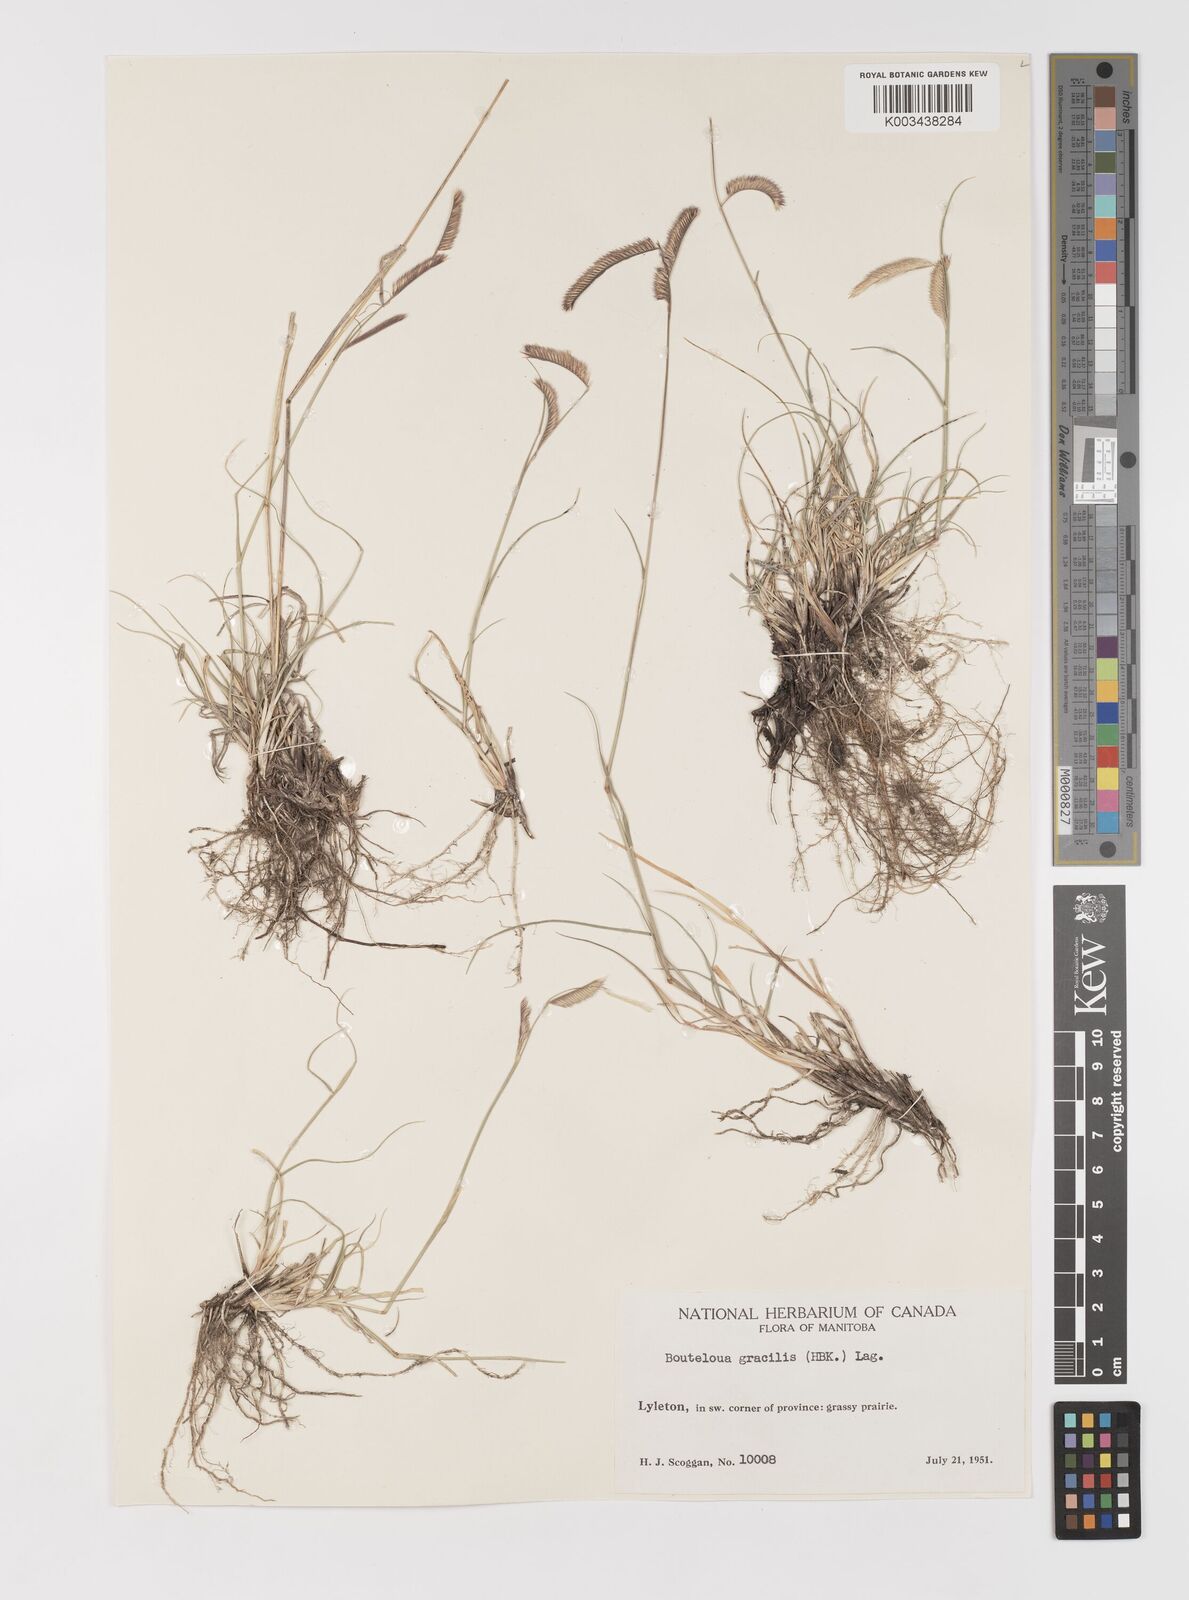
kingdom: Plantae
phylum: Tracheophyta
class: Liliopsida
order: Poales
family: Poaceae
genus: Bouteloua
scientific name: Bouteloua gracilis
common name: Blue grama
